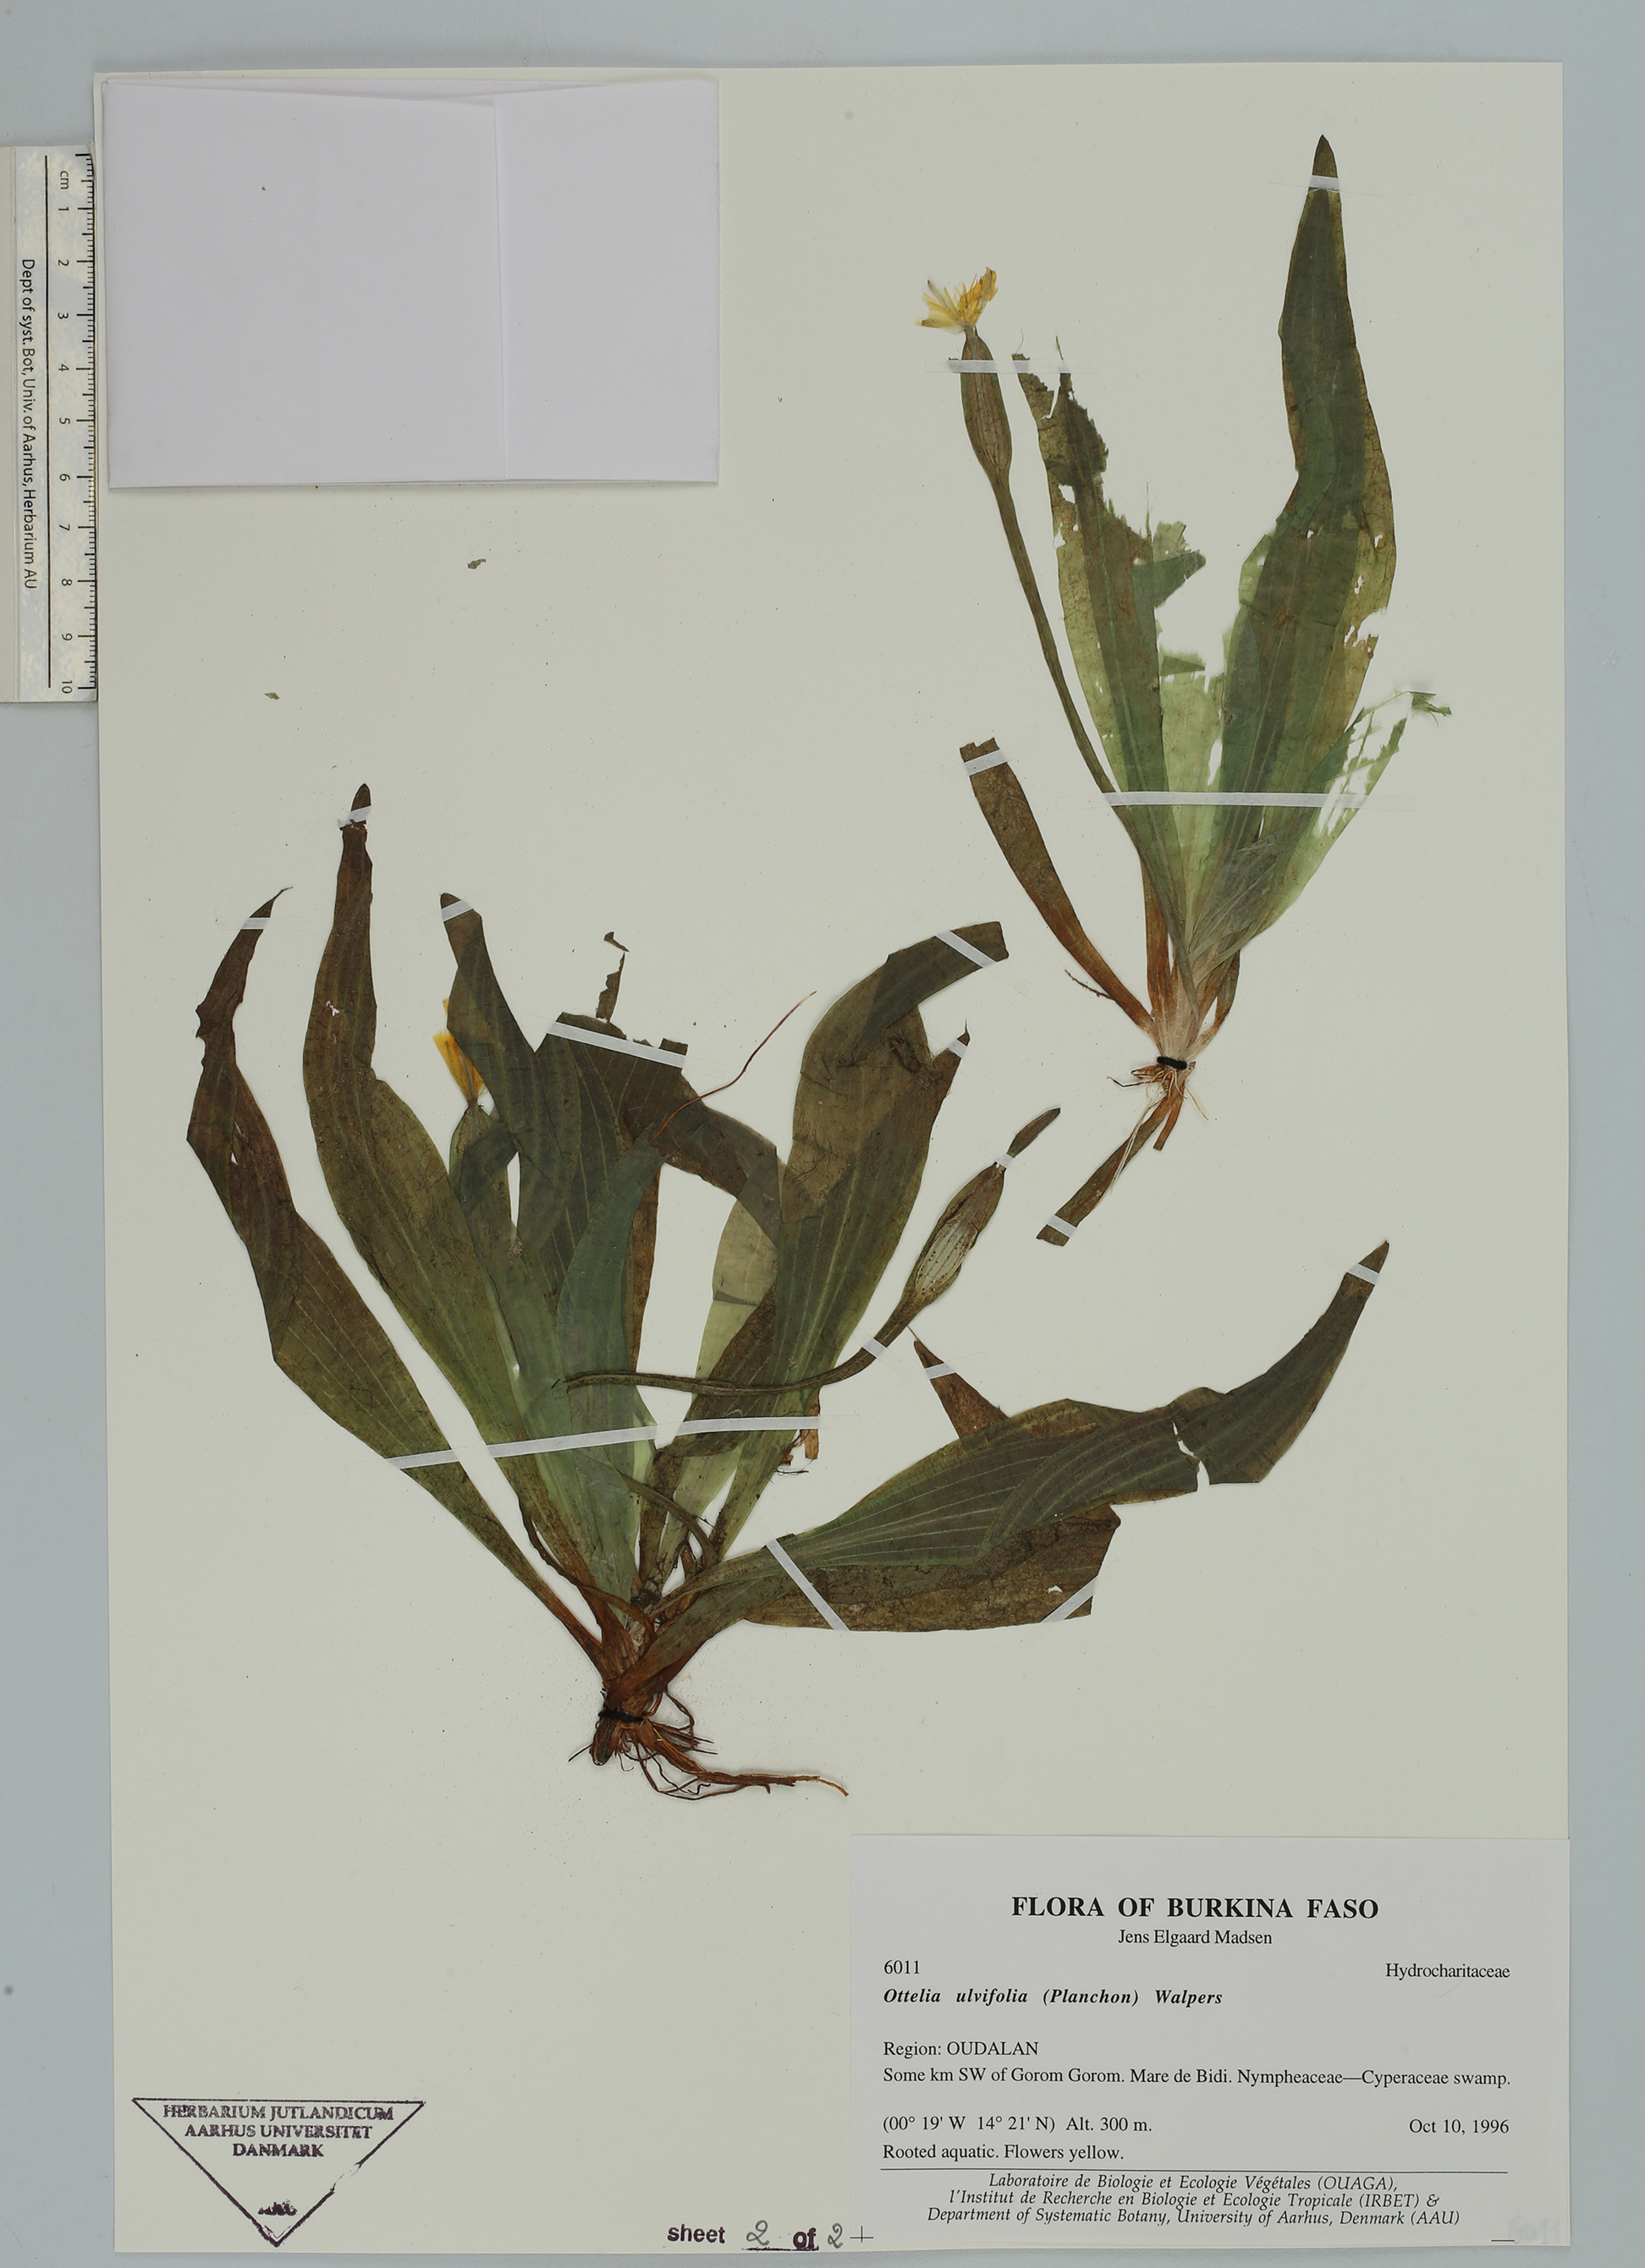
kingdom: Plantae
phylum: Tracheophyta
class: Liliopsida
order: Alismatales
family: Hydrocharitaceae
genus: Ottelia
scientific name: Ottelia ulvifolia
